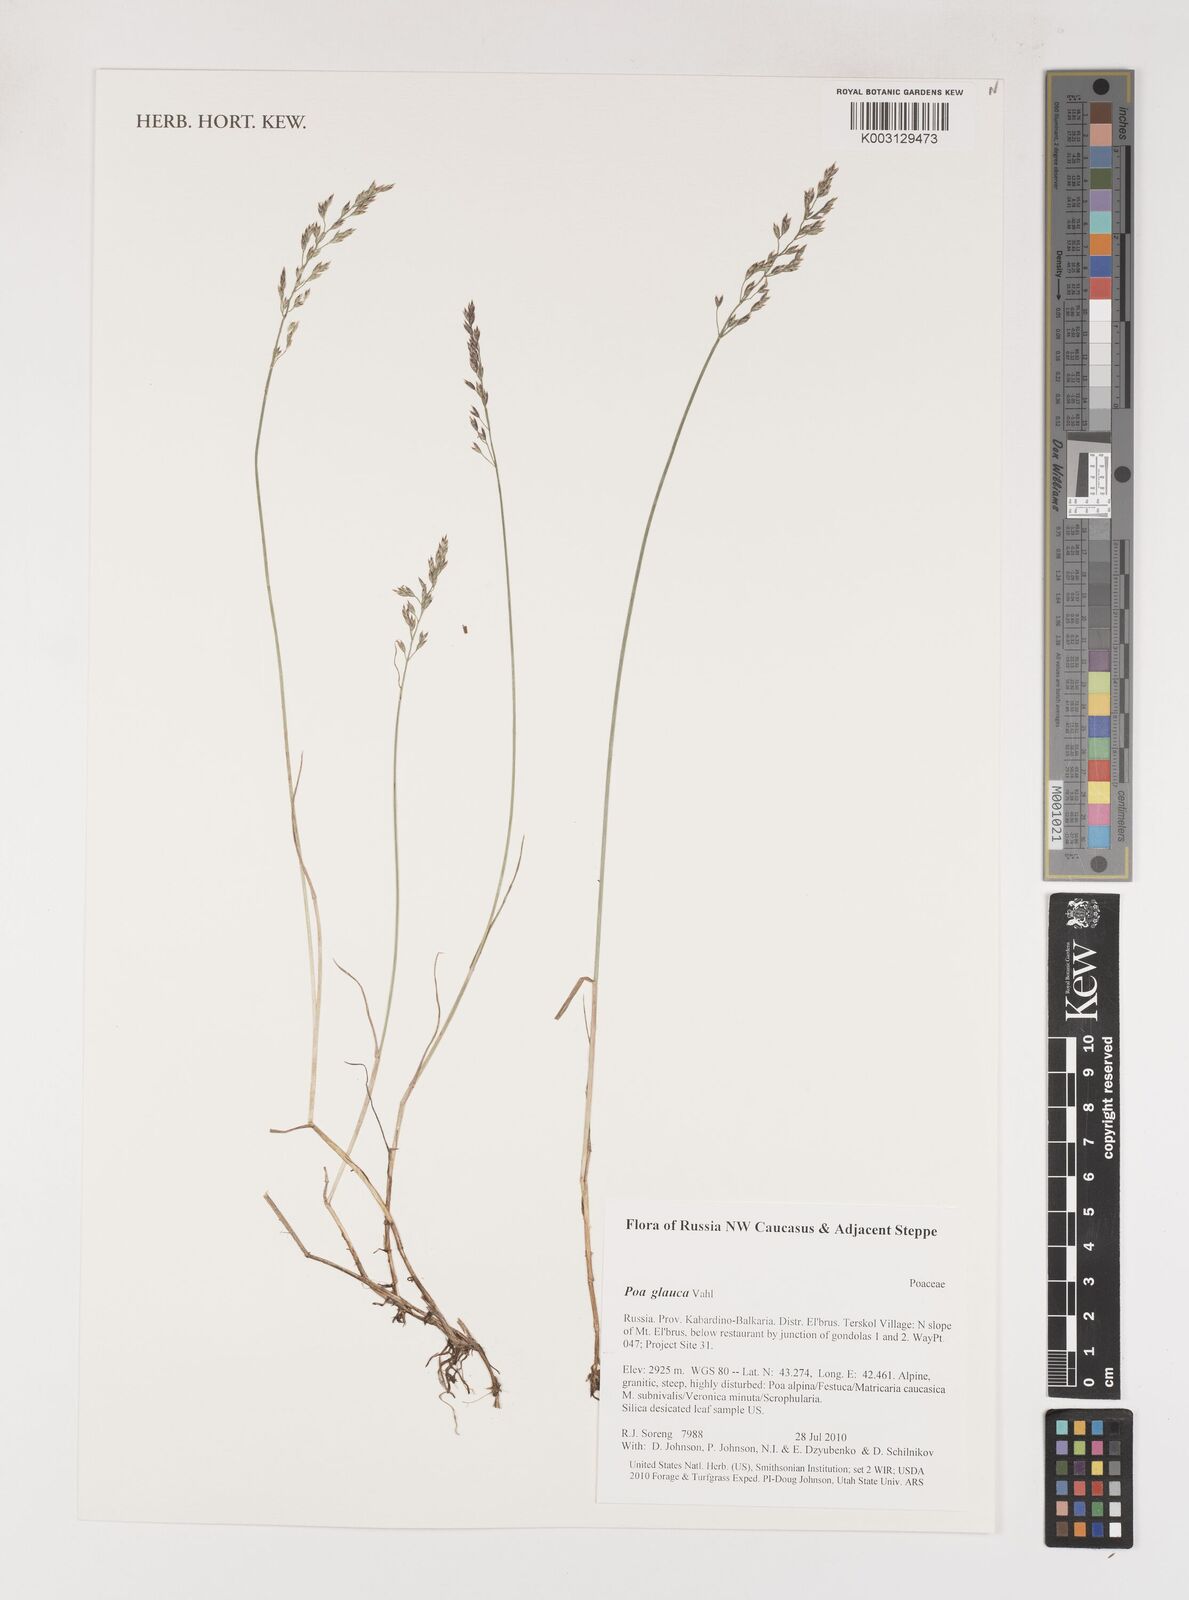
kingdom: Plantae
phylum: Tracheophyta
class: Liliopsida
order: Poales
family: Poaceae
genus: Poa
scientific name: Poa glauca
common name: Glaucous bluegrass
